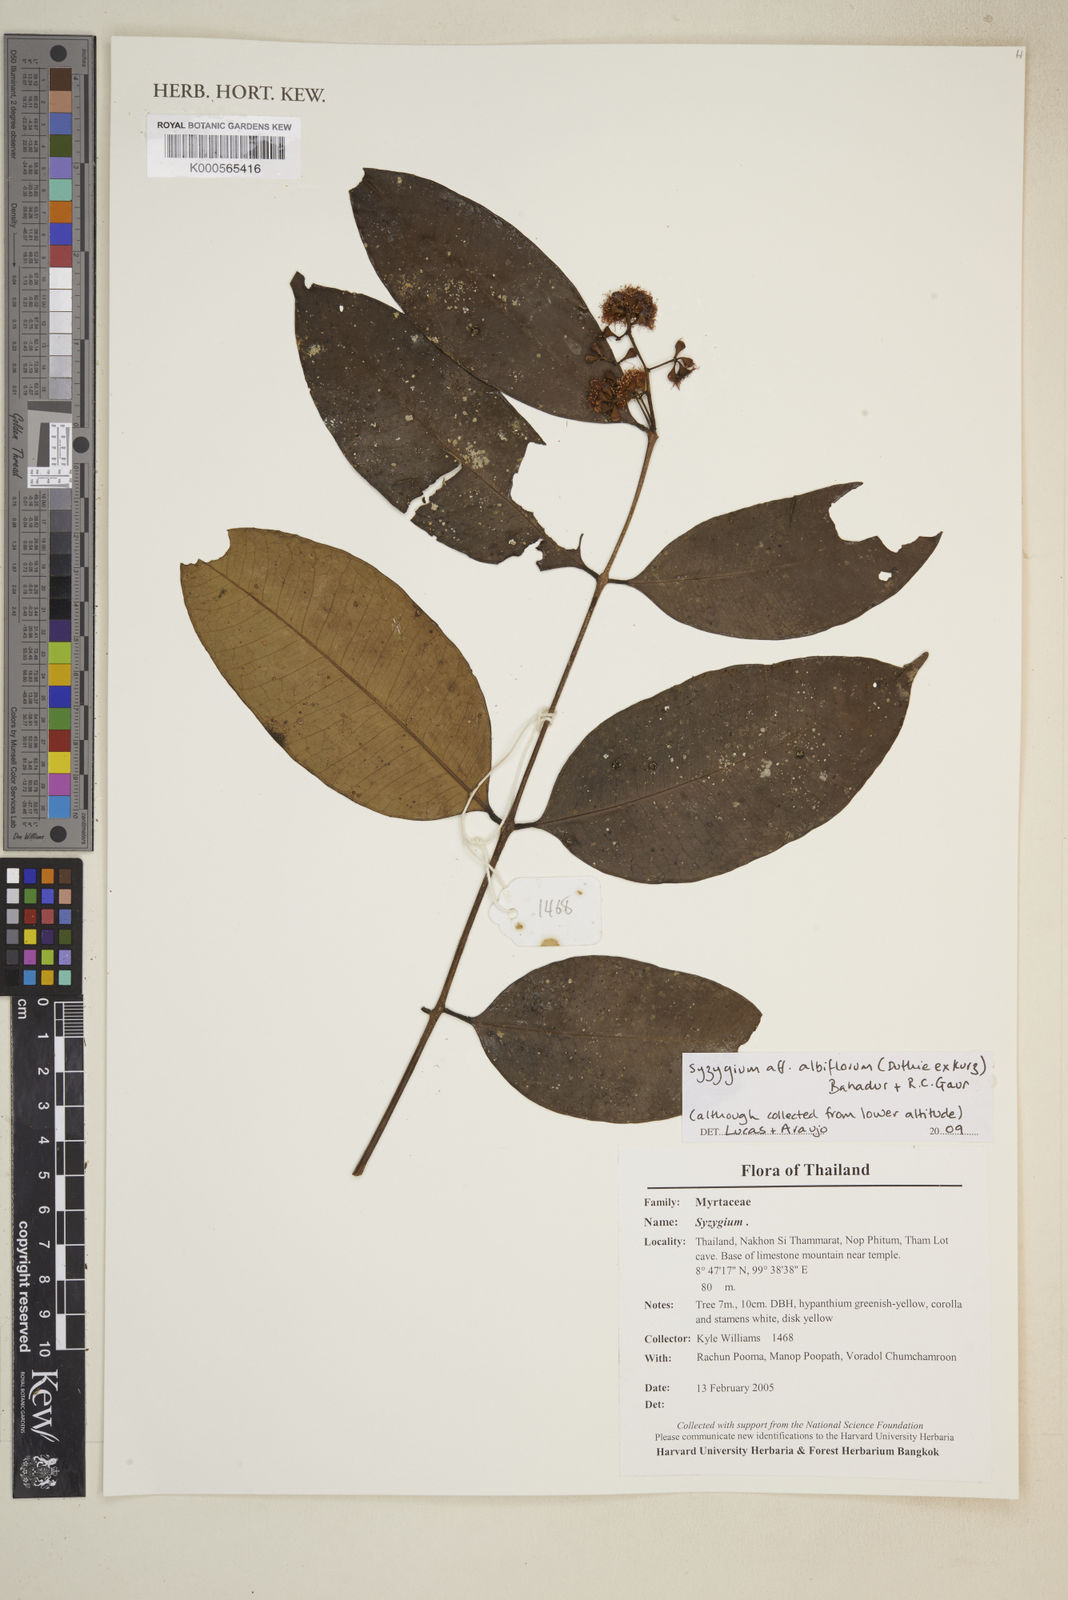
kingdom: Plantae
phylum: Tracheophyta
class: Magnoliopsida
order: Myrtales
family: Myrtaceae
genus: Syzygium
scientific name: Syzygium racemosum
